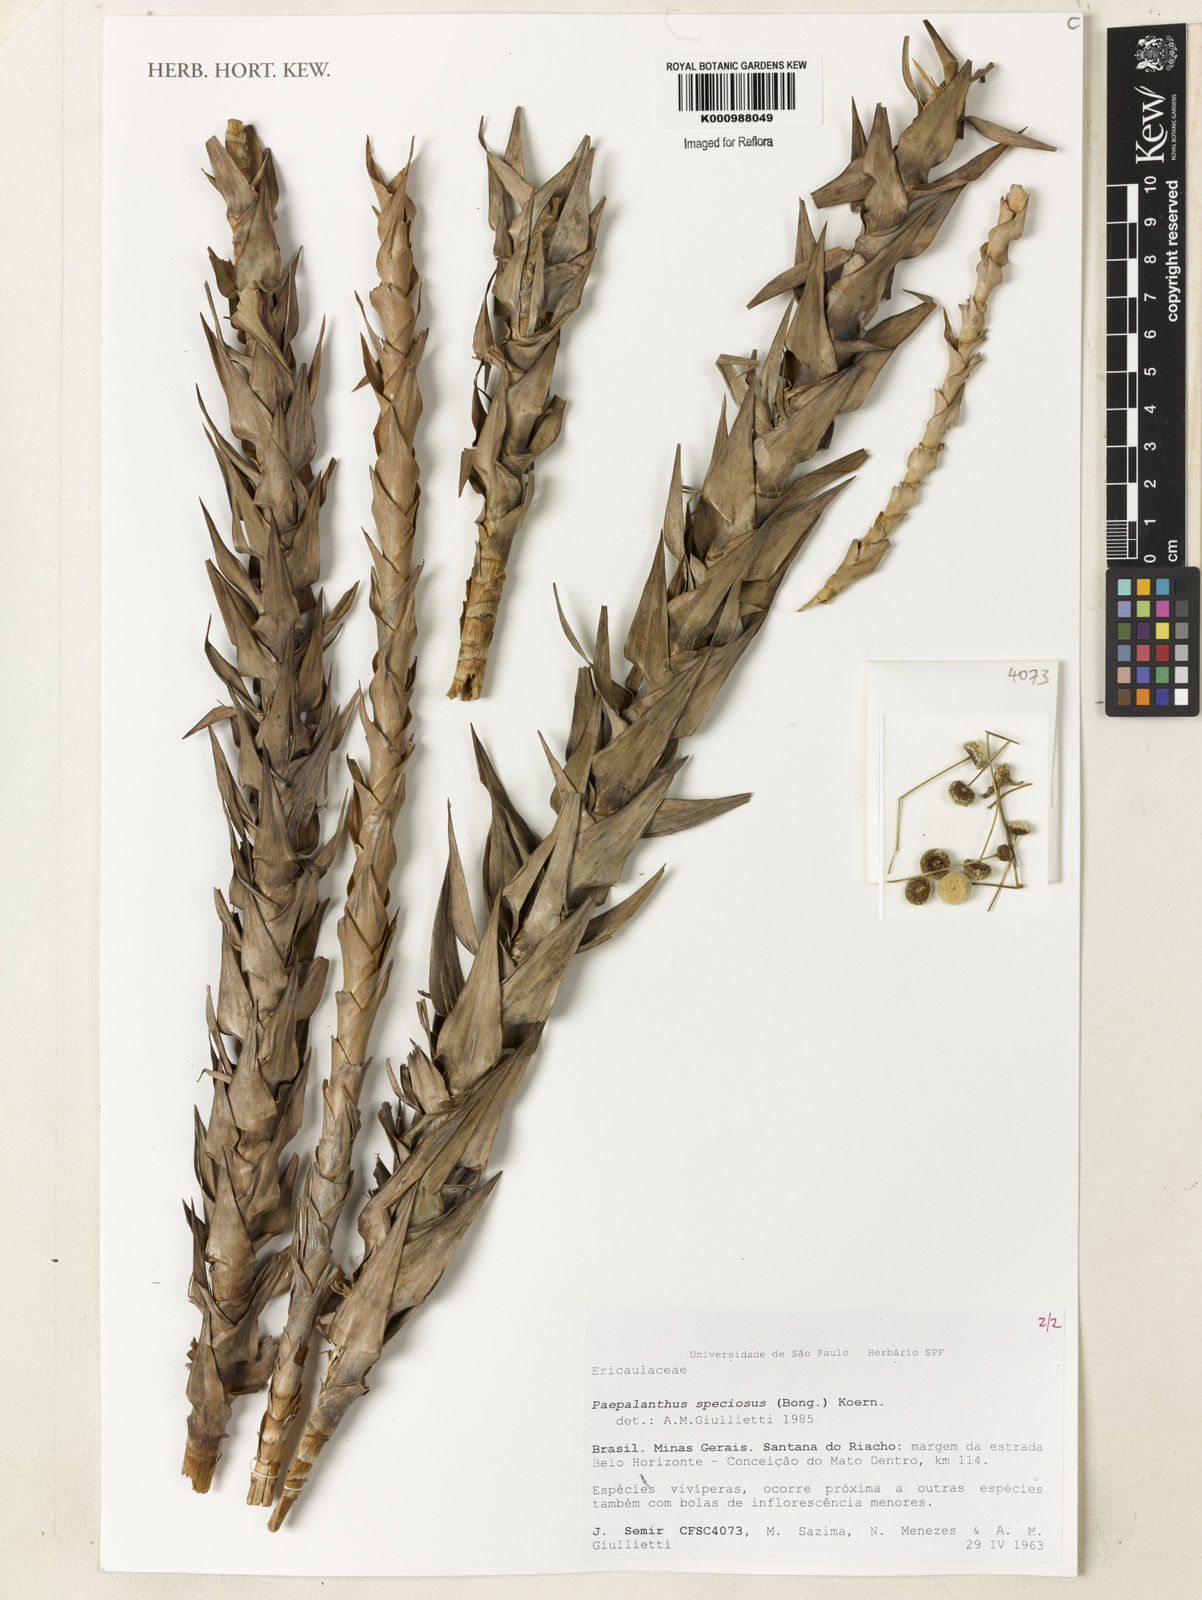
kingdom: Plantae
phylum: Tracheophyta
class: Liliopsida
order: Poales
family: Eriocaulaceae
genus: Paepalanthus
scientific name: Paepalanthus
